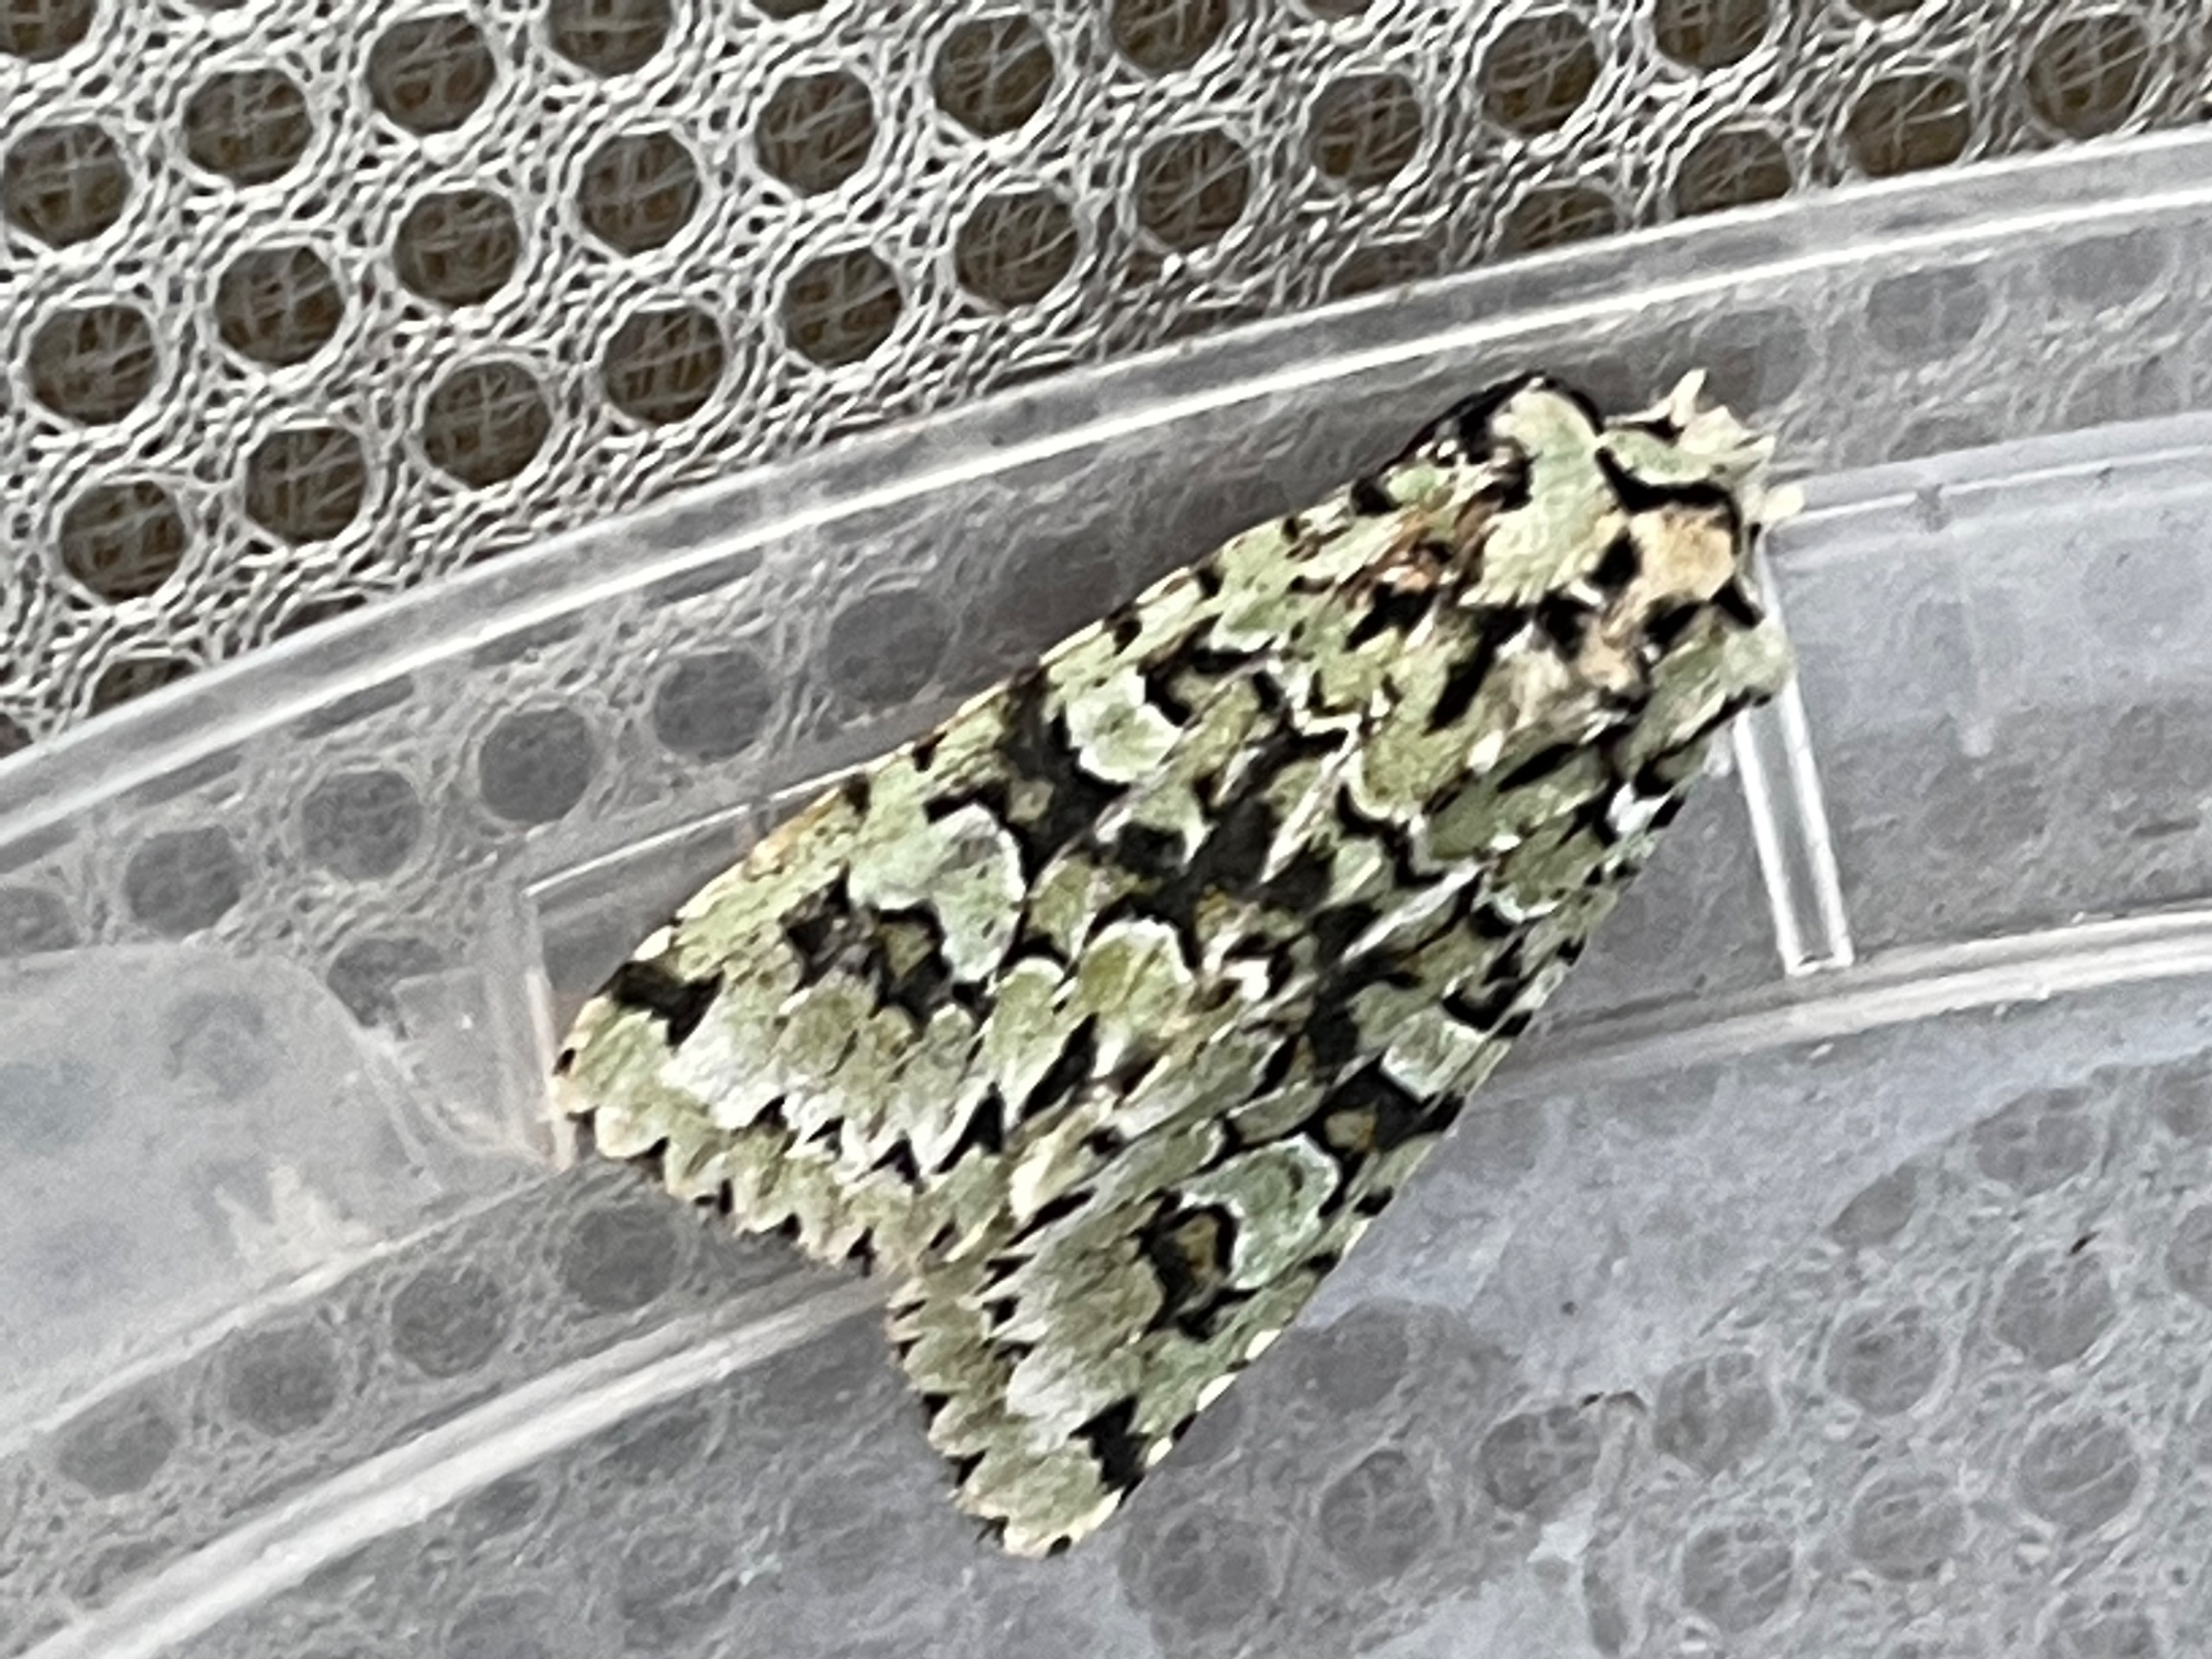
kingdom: Animalia
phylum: Arthropoda
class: Insecta
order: Lepidoptera
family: Noctuidae
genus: Griposia
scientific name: Griposia aprilina
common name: Aprilugle
